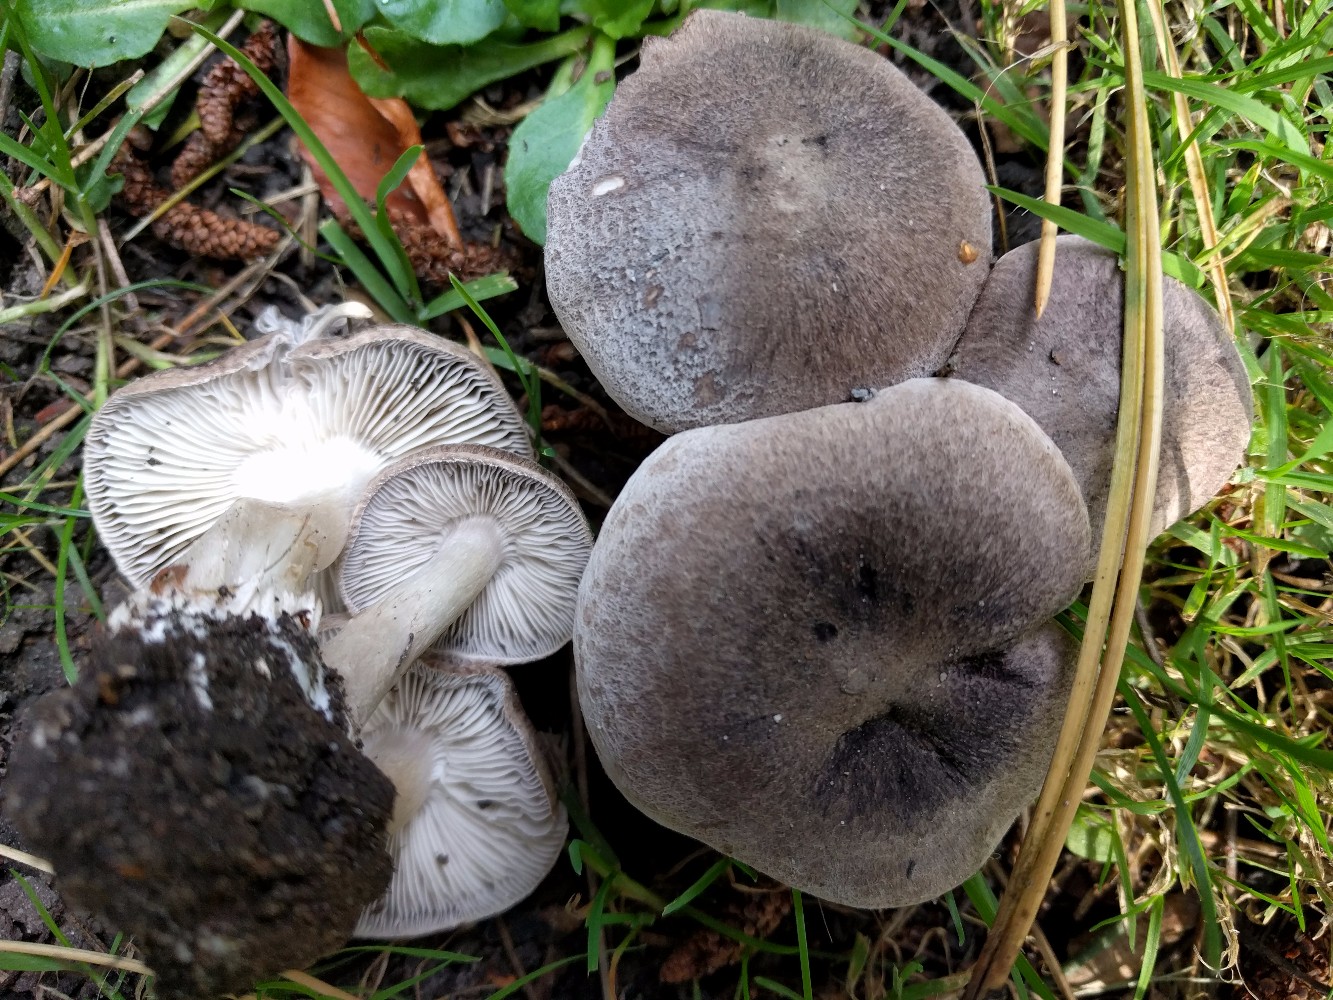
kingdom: Fungi
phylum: Basidiomycota
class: Agaricomycetes
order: Agaricales
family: Tricholomataceae
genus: Tricholoma
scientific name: Tricholoma terreum
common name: jordfarvet ridderhat
